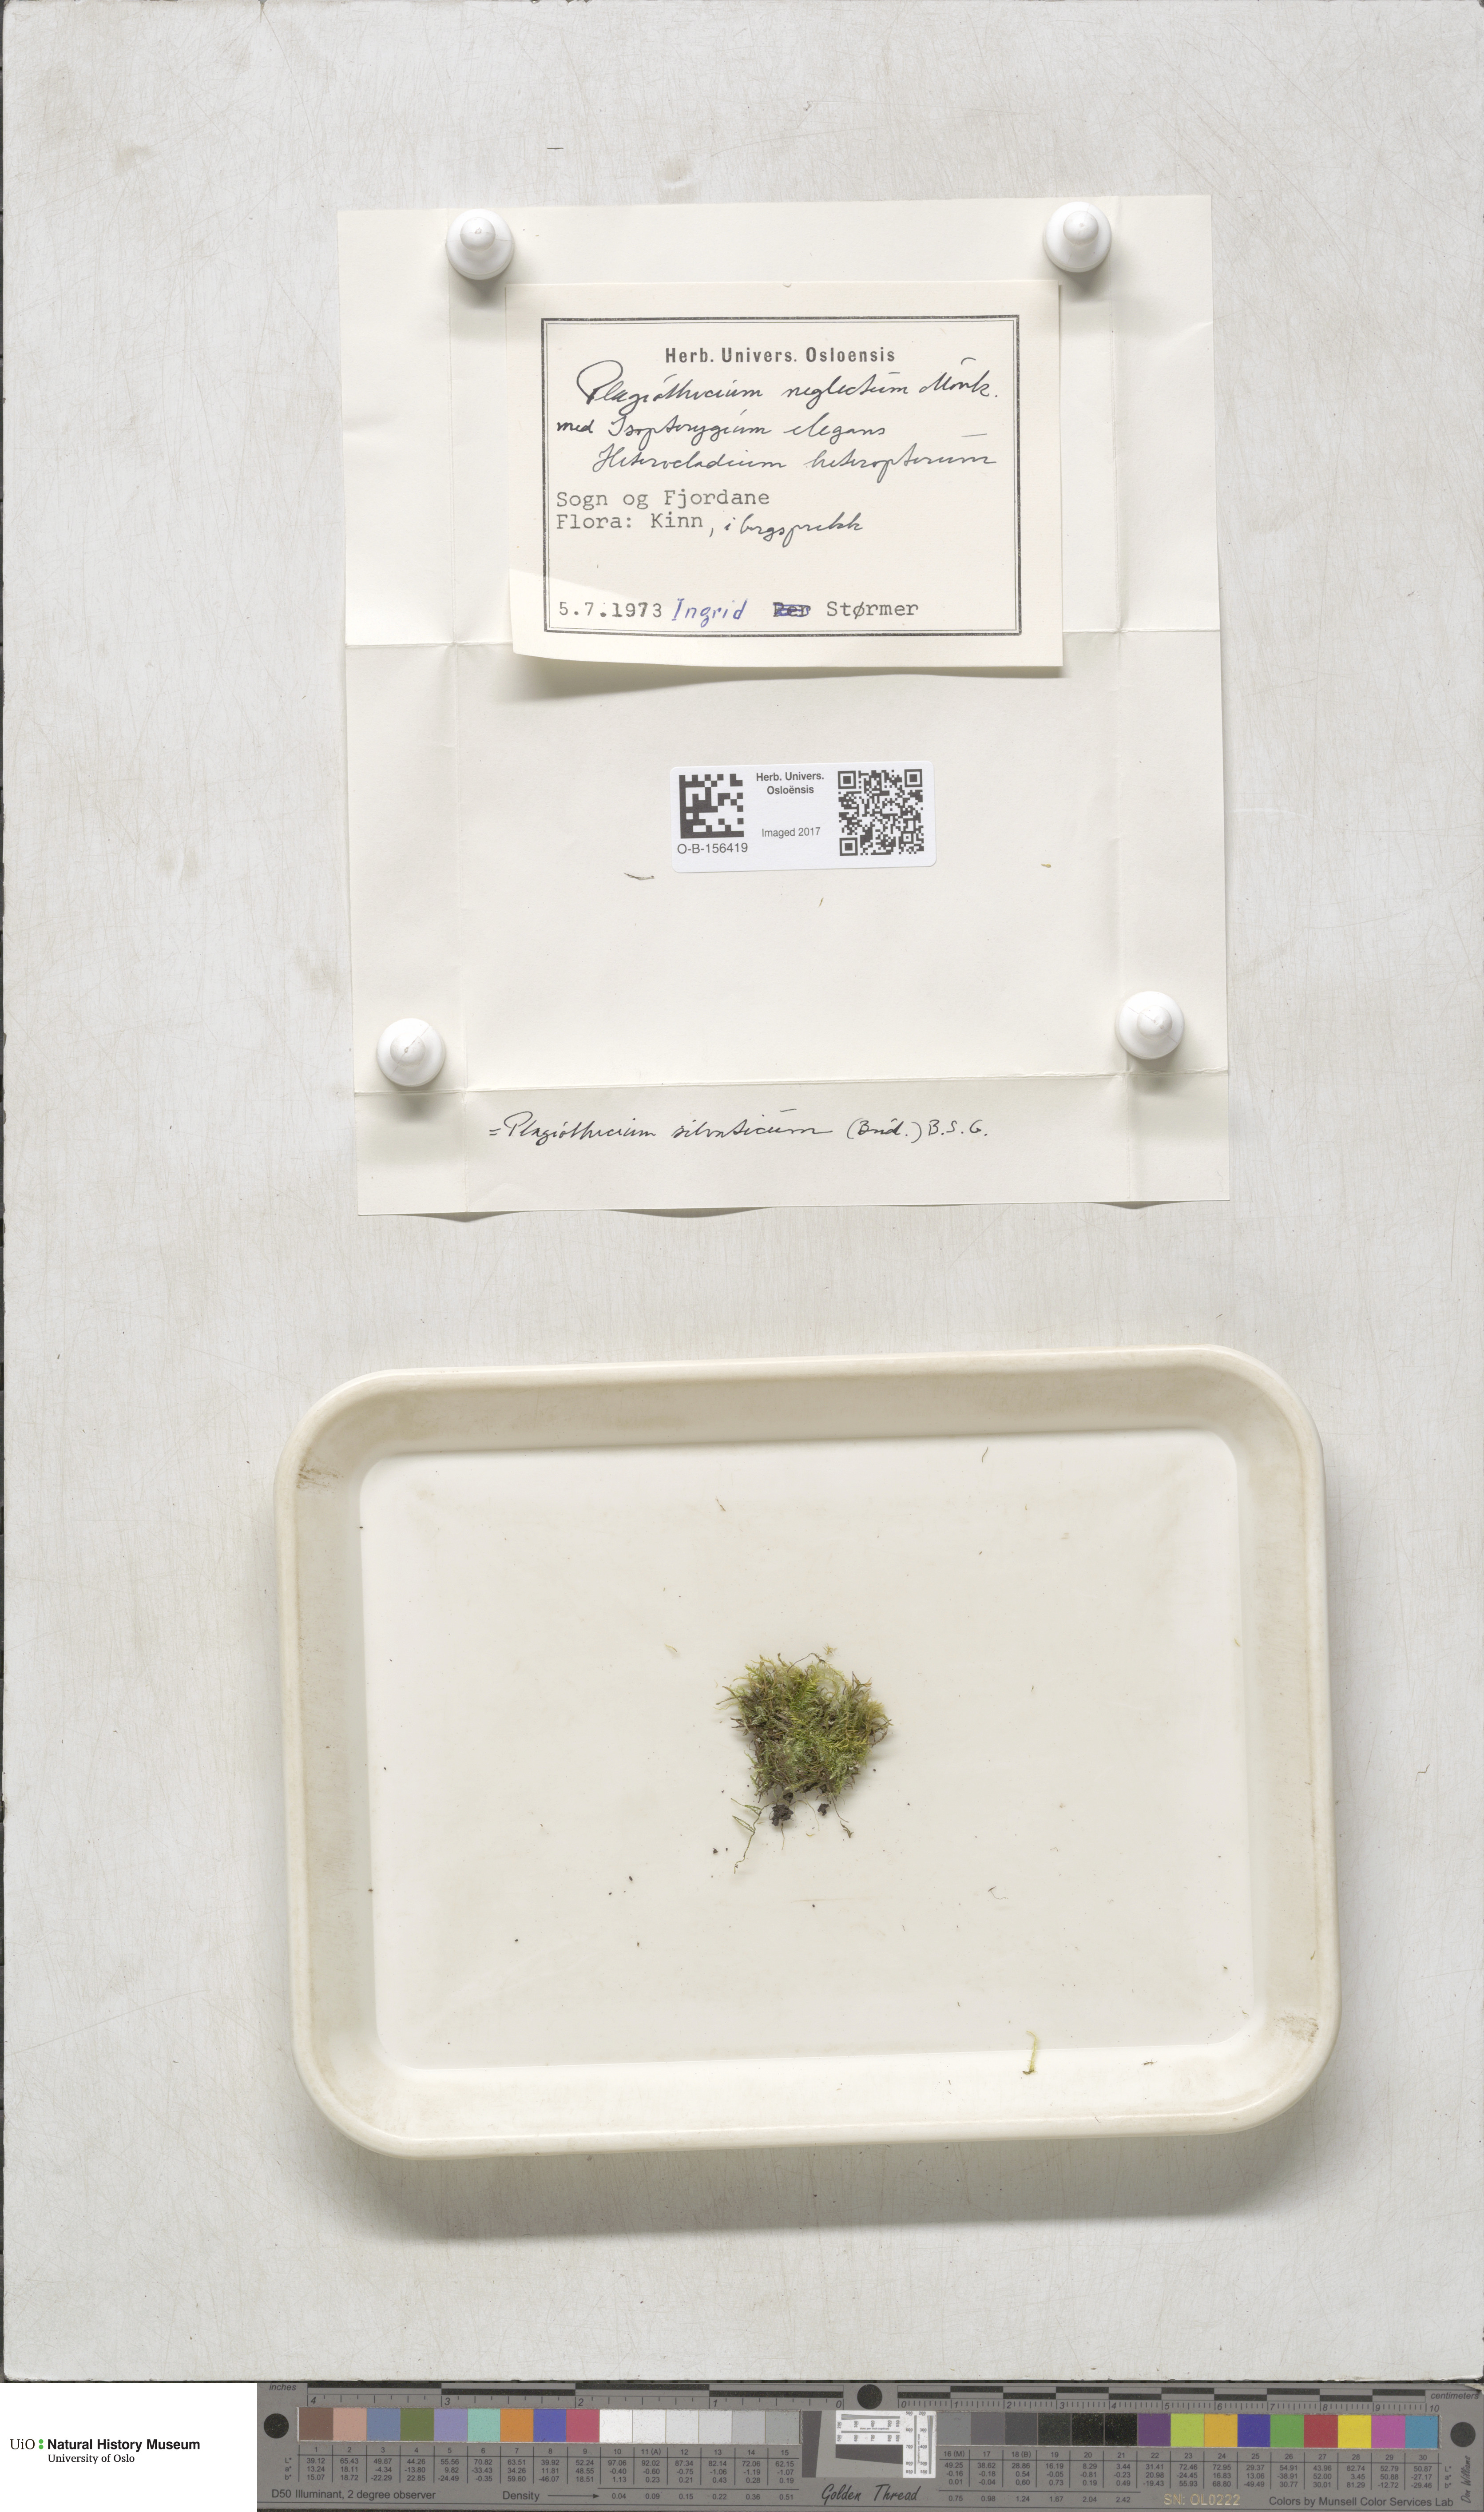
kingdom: Plantae
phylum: Bryophyta
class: Bryopsida
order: Hypnales
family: Plagiotheciaceae
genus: Plagiothecium
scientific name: Plagiothecium nemorale
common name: Woodsy silk-moss
